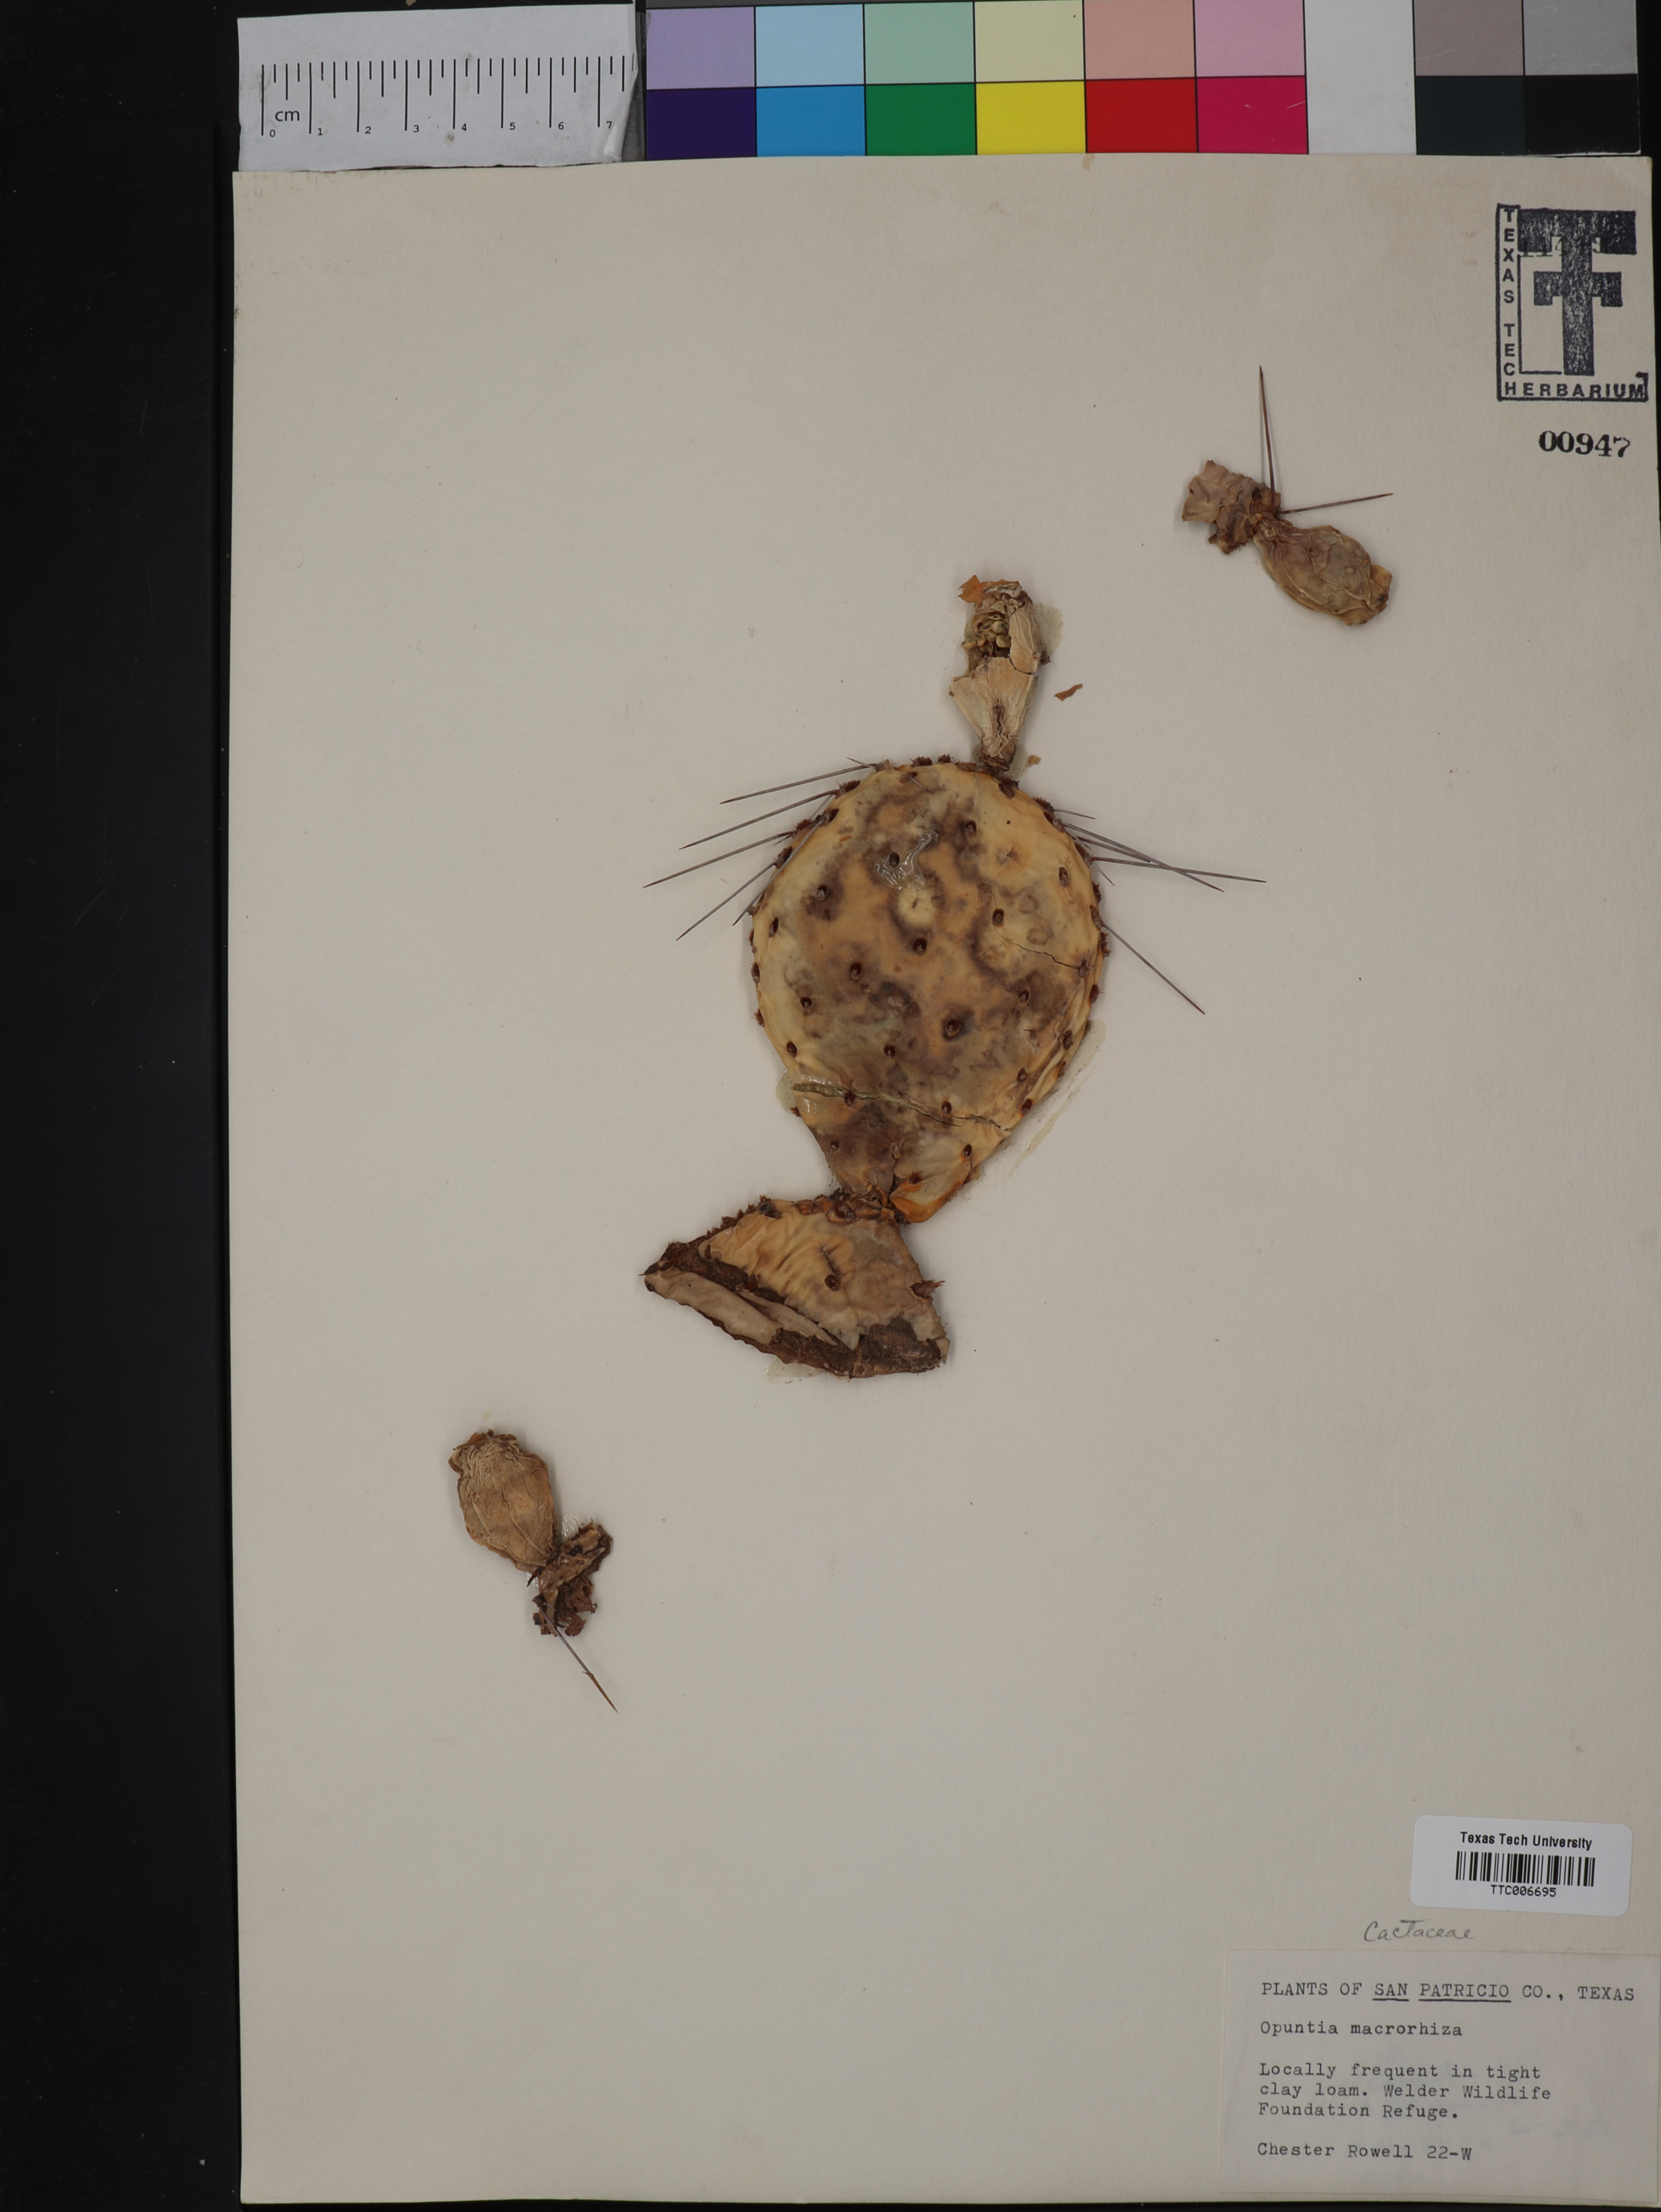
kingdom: Plantae
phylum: Tracheophyta
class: Magnoliopsida
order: Caryophyllales
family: Cactaceae
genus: Opuntia
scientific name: Opuntia macrorhiza
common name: Grassland pricklypear
